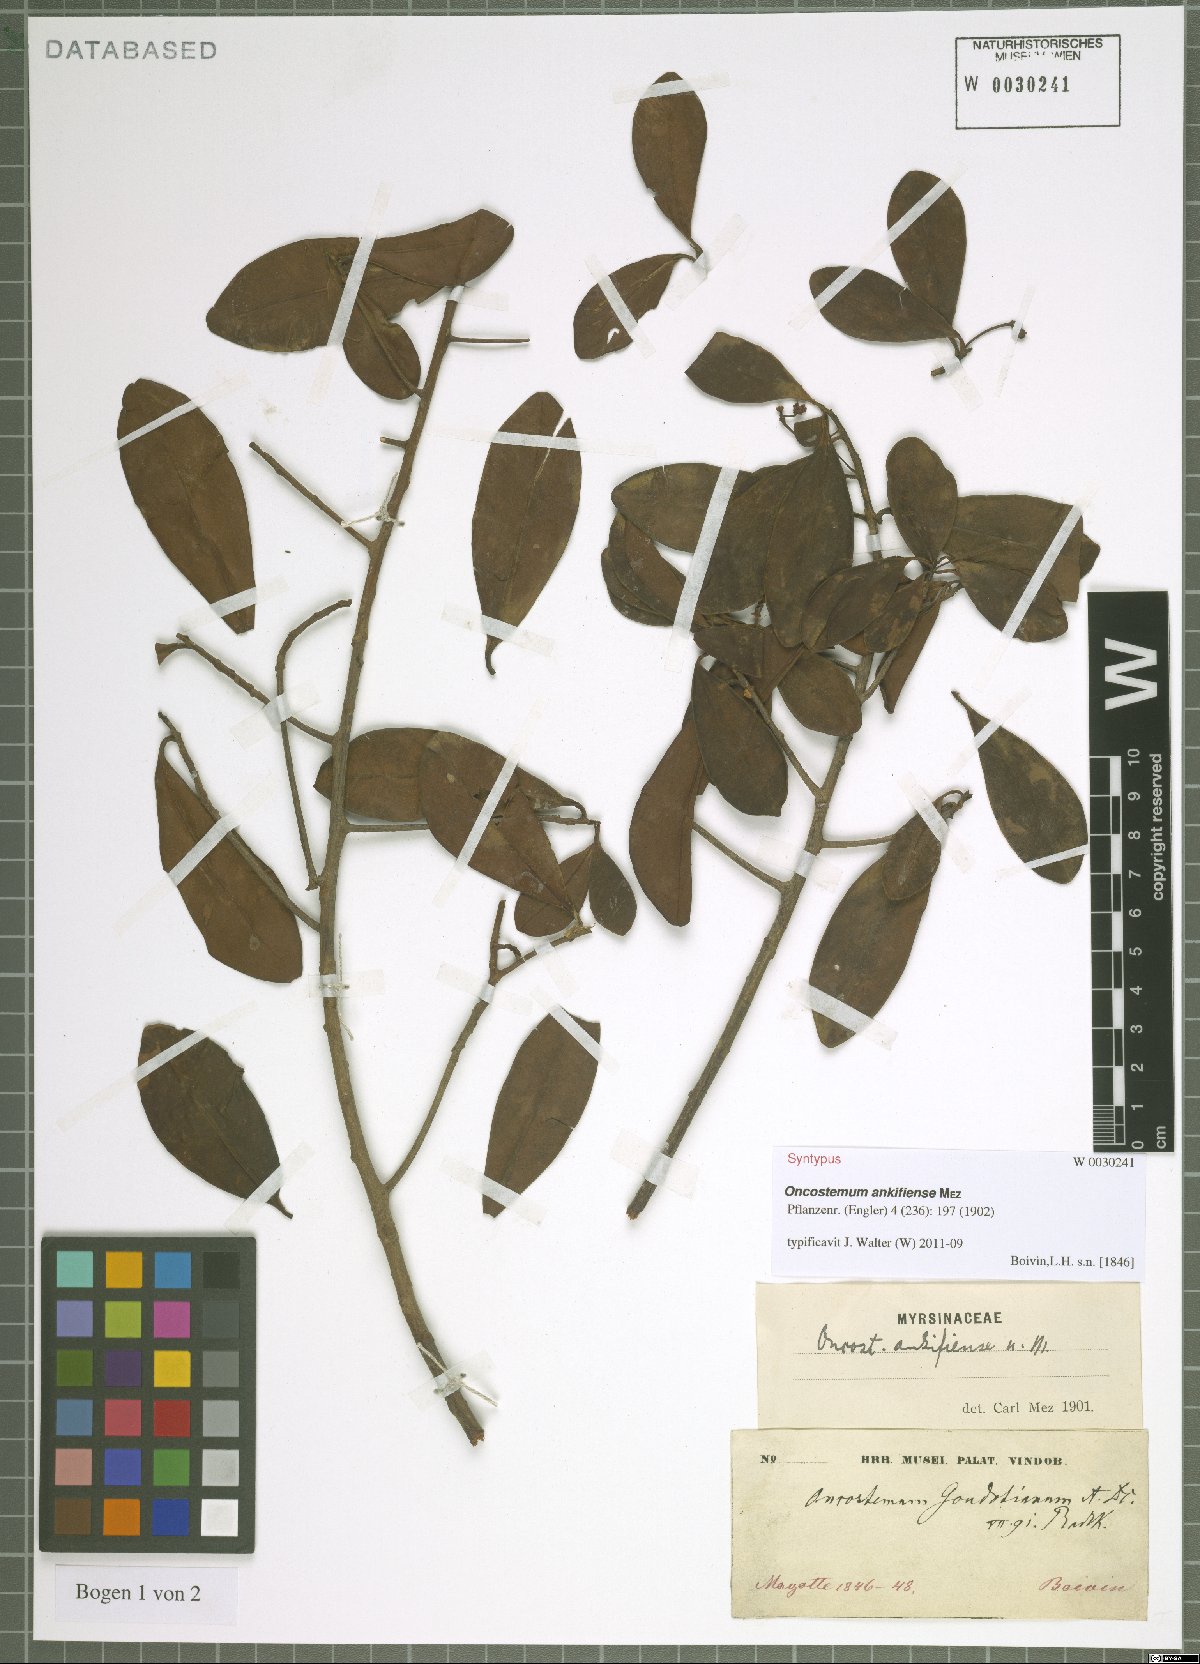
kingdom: Plantae
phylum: Tracheophyta
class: Magnoliopsida
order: Ericales
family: Primulaceae
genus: Oncostemum
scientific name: Oncostemum ankifiense
